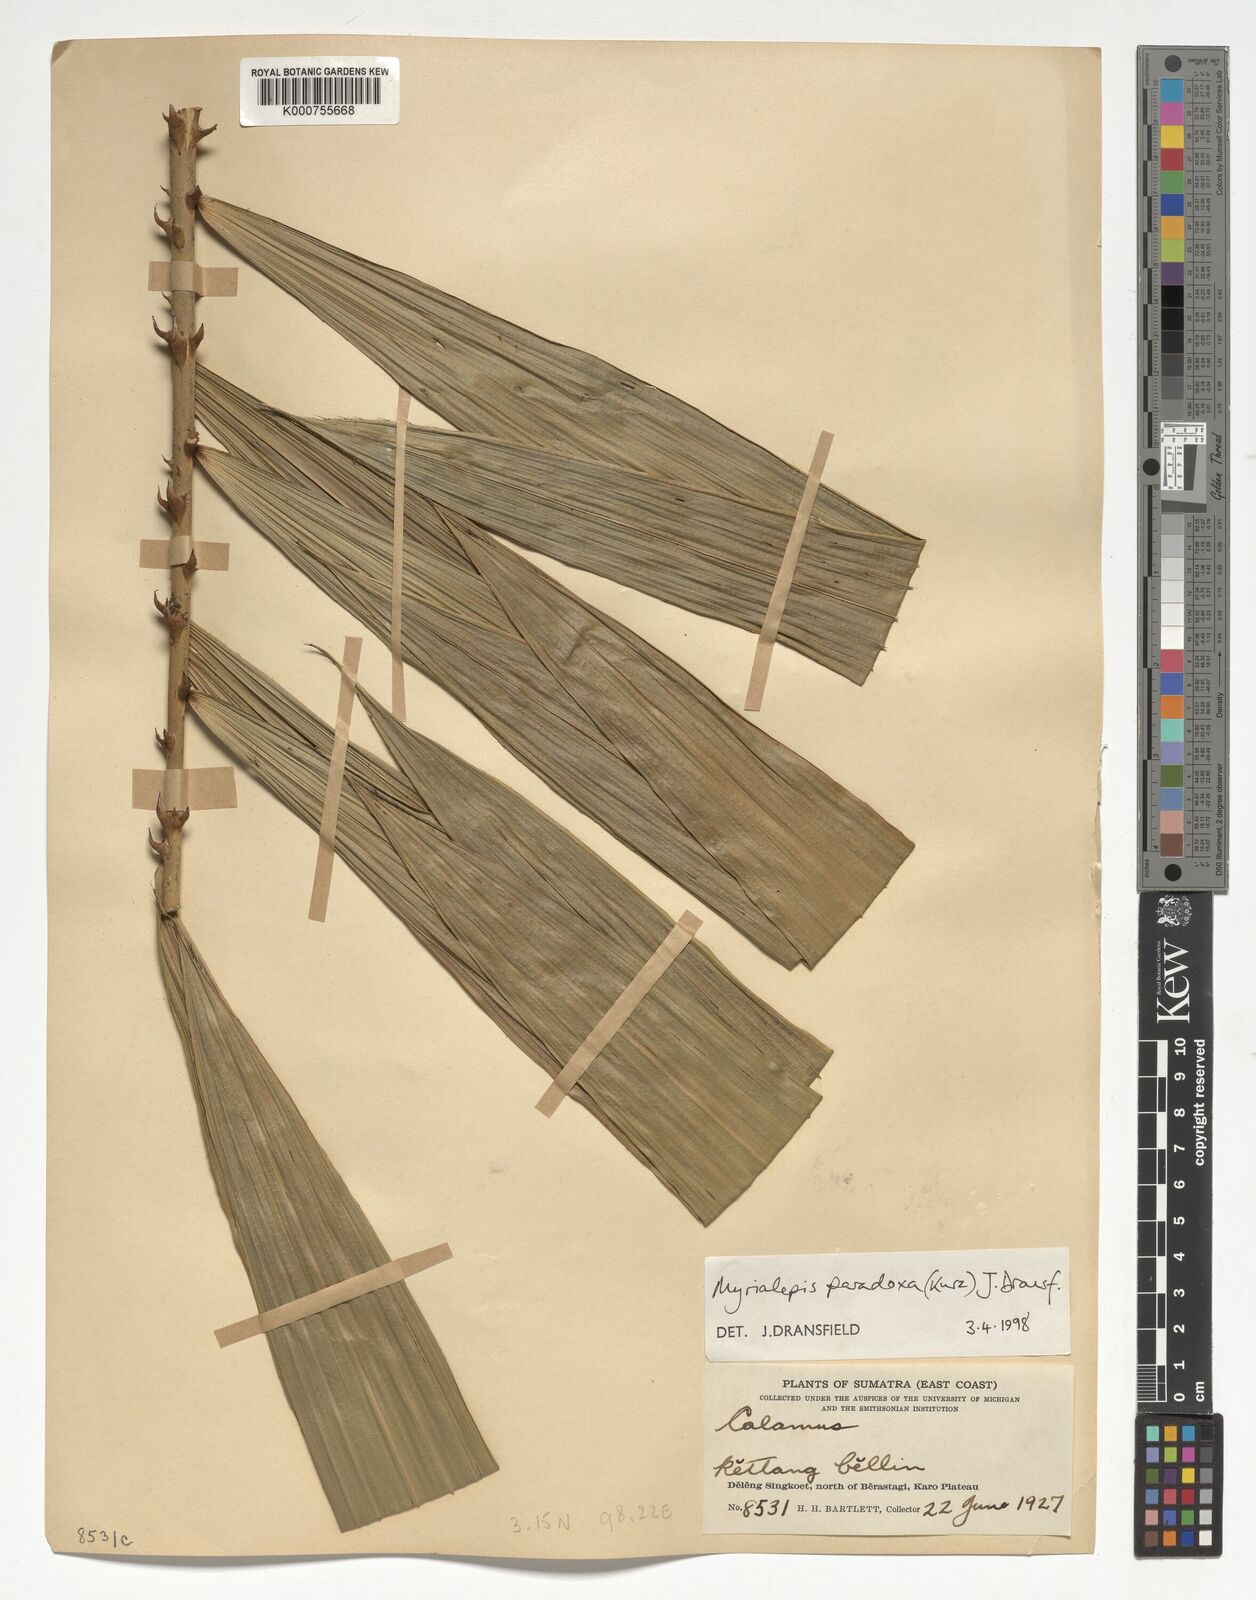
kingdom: Plantae
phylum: Tracheophyta
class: Liliopsida
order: Arecales
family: Arecaceae
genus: Myrialepis
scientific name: Myrialepis paradoxa
